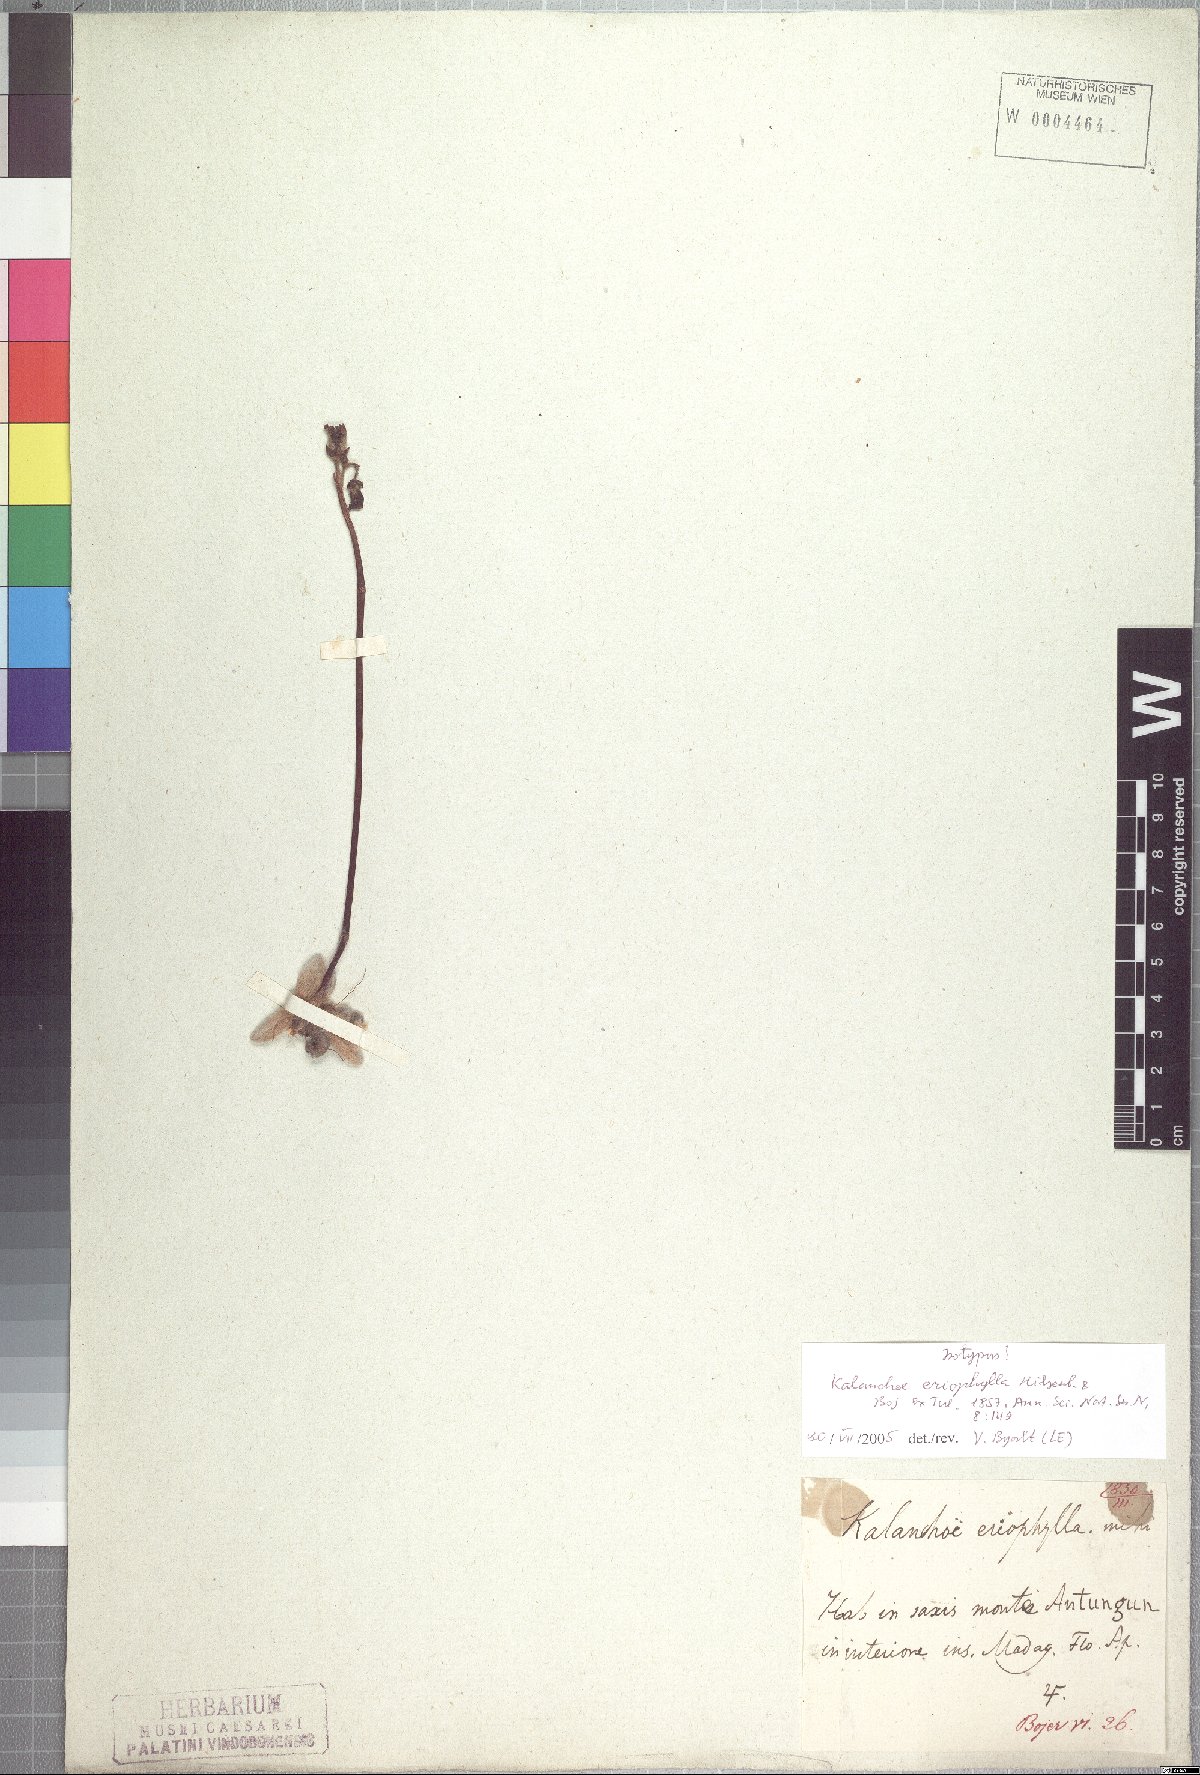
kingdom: Plantae
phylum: Tracheophyta
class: Magnoliopsida
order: Saxifragales
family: Crassulaceae
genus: Kalanchoe
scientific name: Kalanchoe eriophylla
